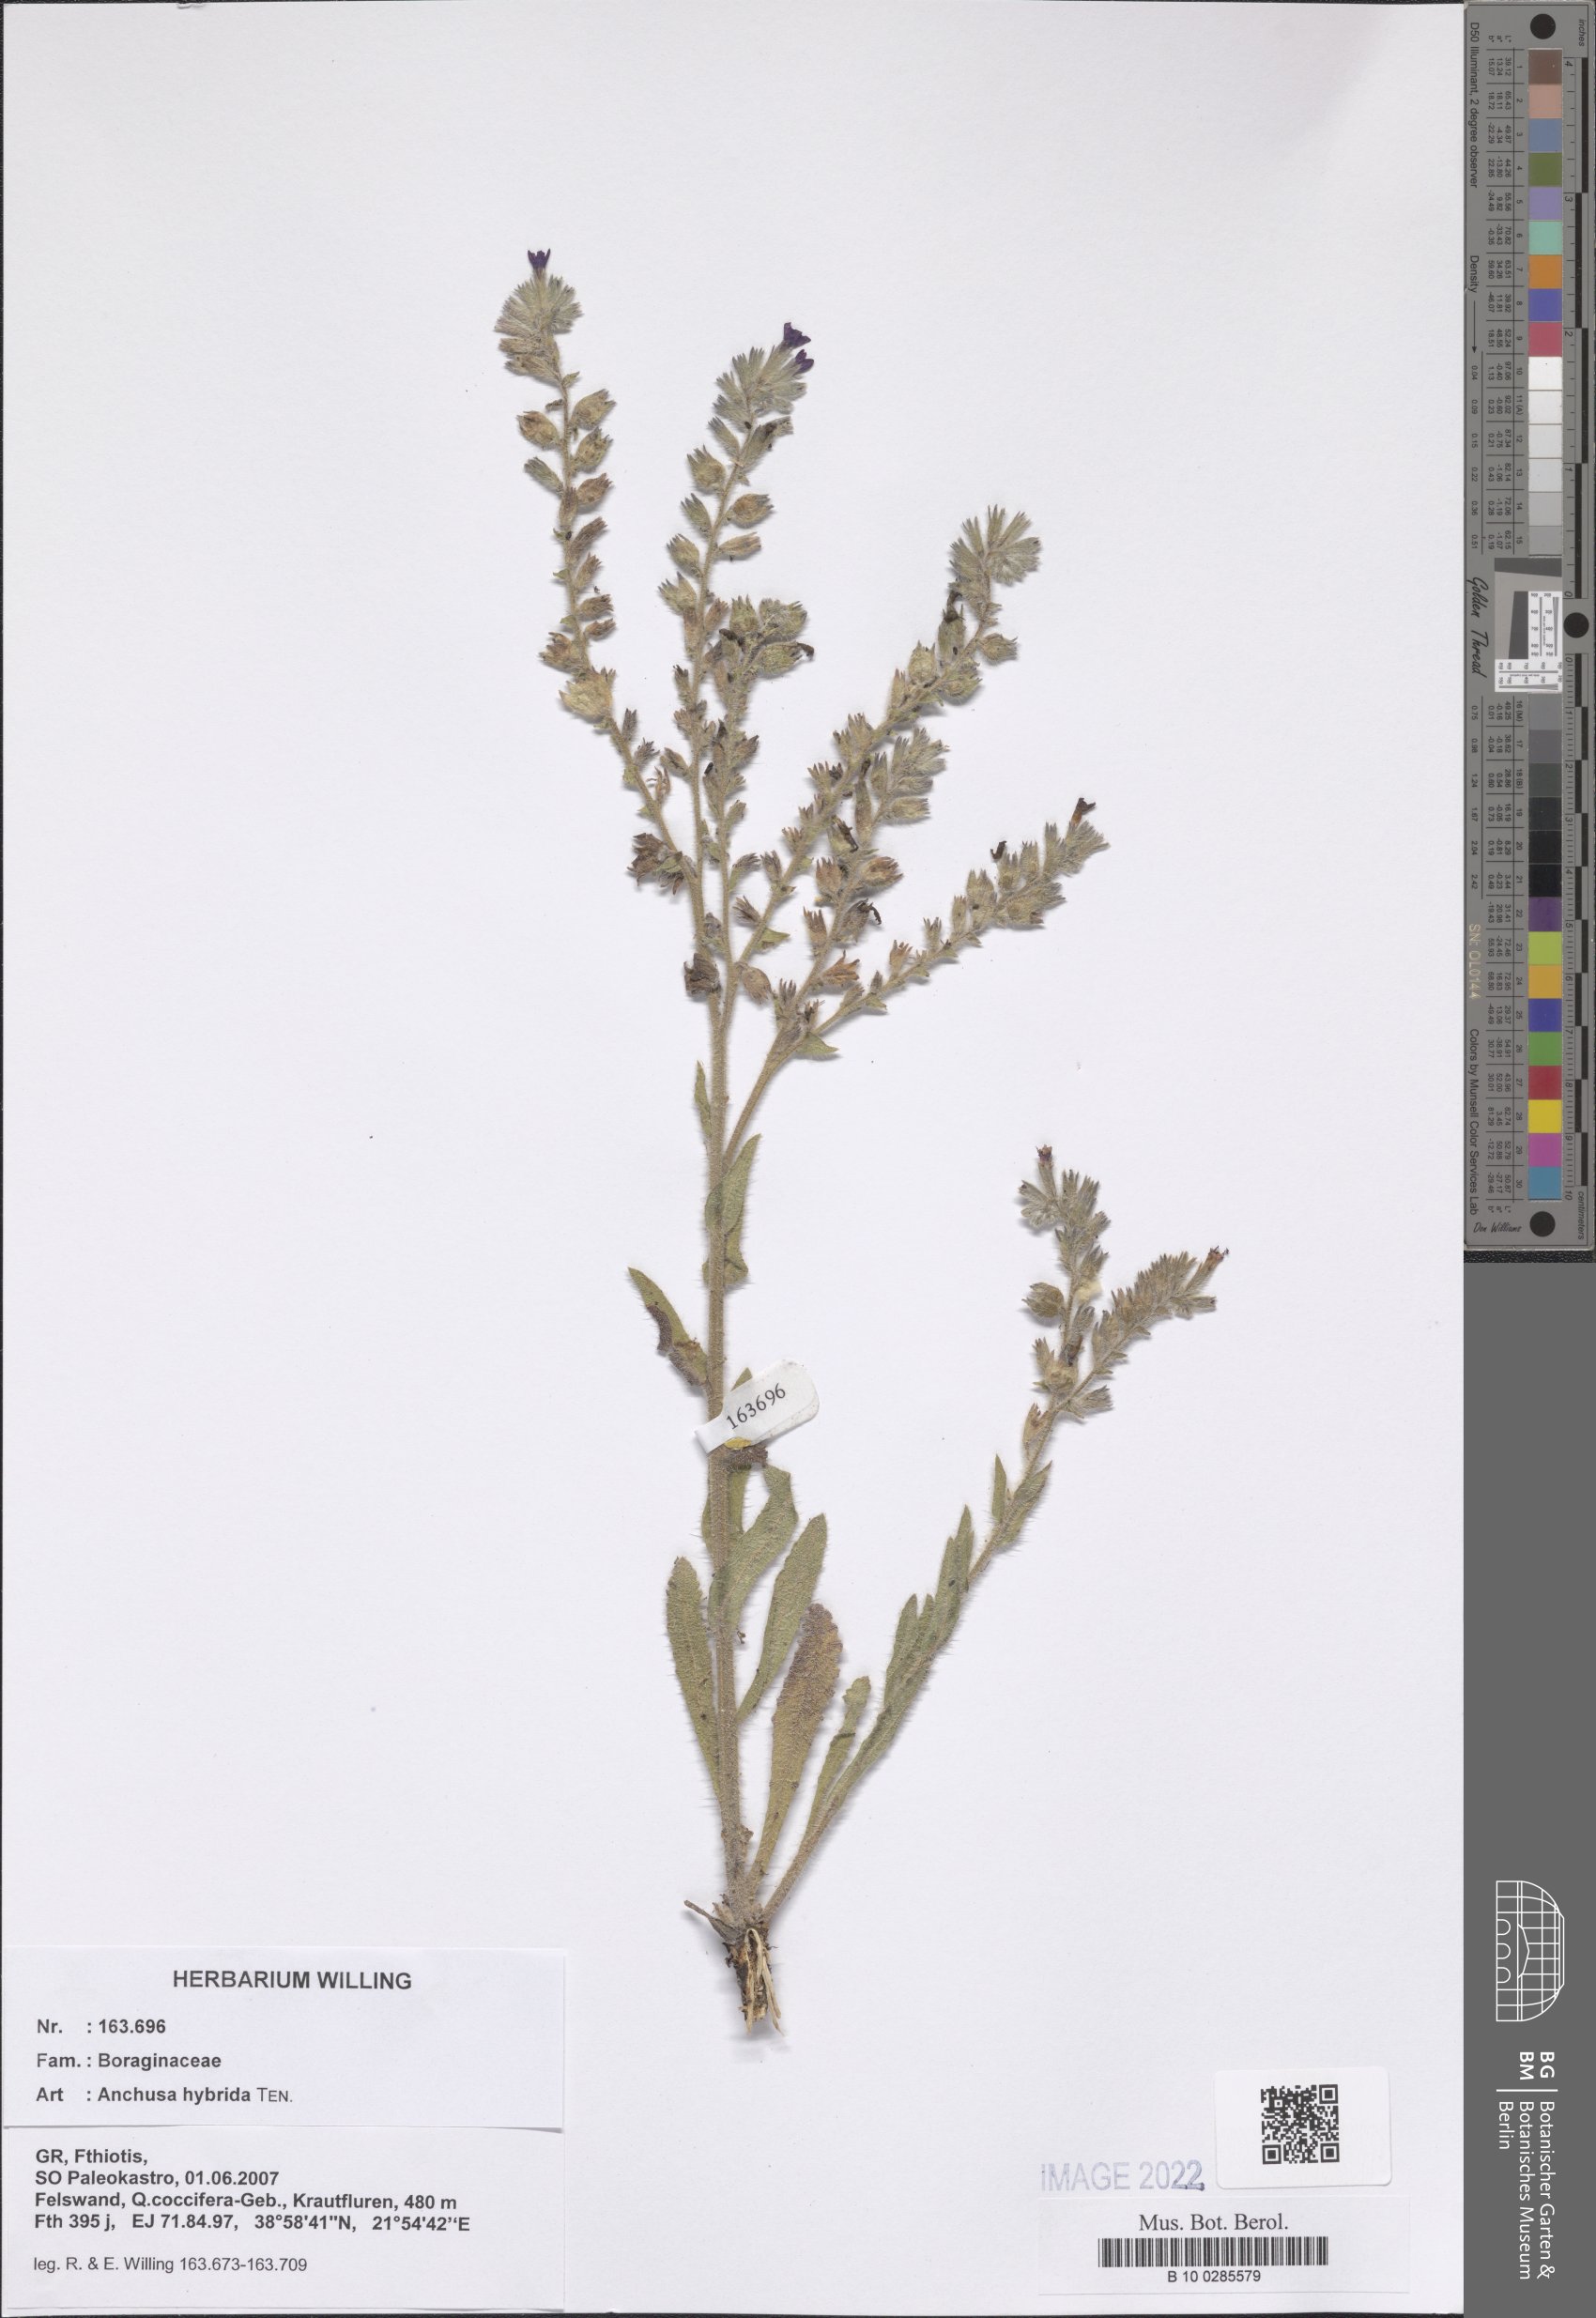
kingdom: Plantae
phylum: Tracheophyta
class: Magnoliopsida
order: Boraginales
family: Boraginaceae
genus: Anchusa
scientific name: Anchusa hybrida
